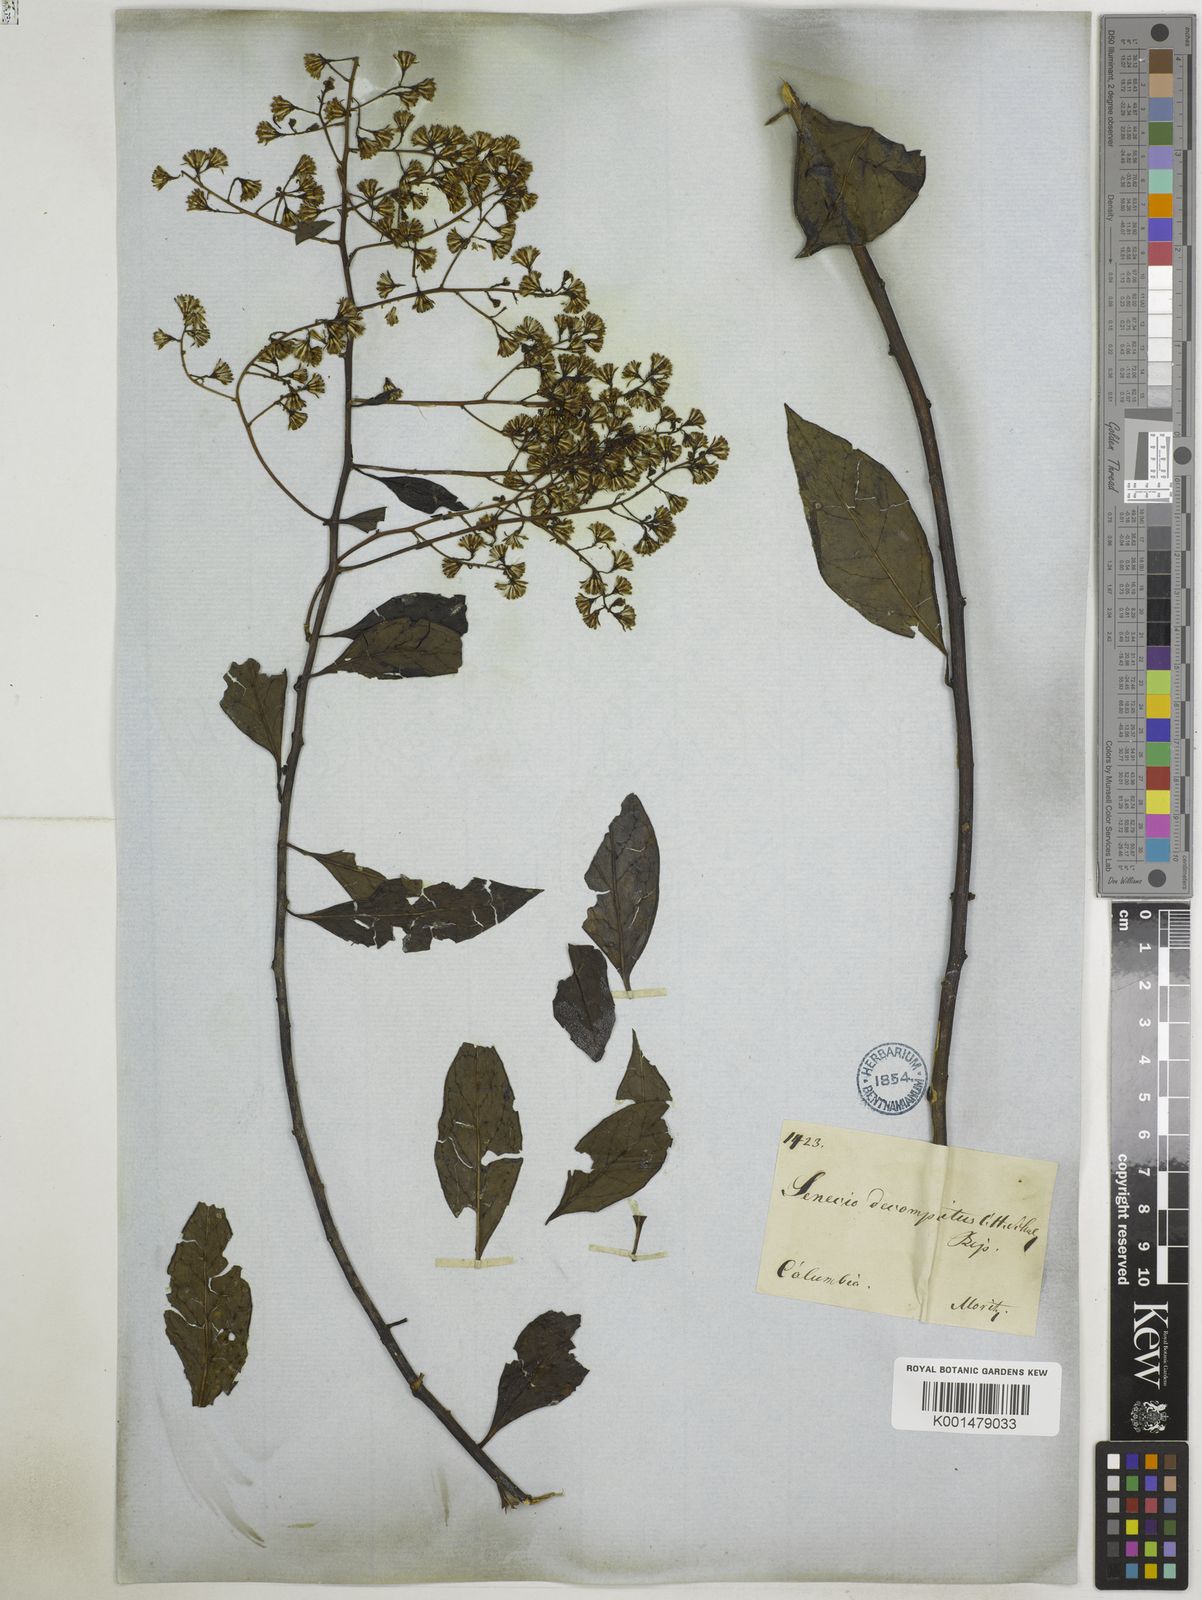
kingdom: Plantae
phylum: Tracheophyta
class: Magnoliopsida
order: Asterales
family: Asteraceae
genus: Pentacalia
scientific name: Pentacalia decomposita
